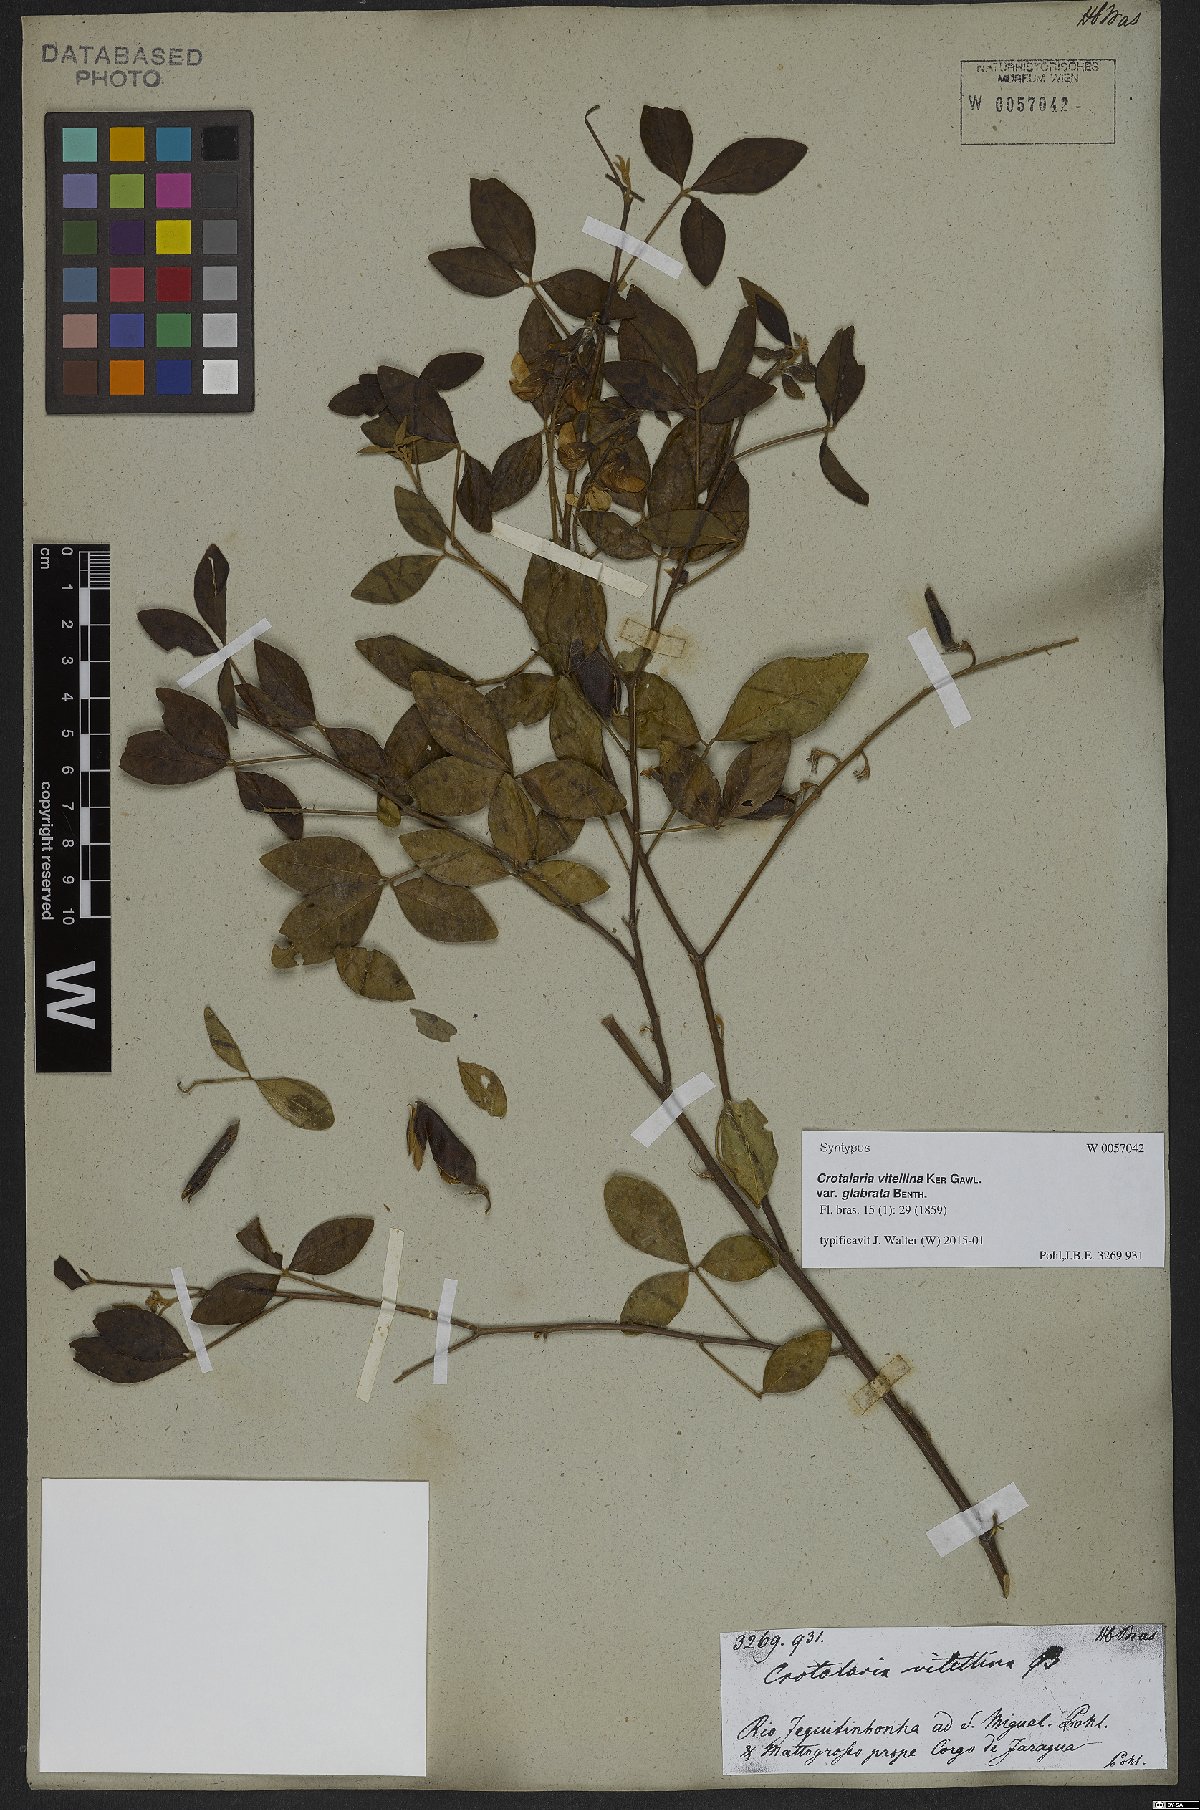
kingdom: Plantae
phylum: Tracheophyta
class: Magnoliopsida
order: Fabales
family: Fabaceae
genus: Crotalaria
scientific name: Crotalaria vitellina
